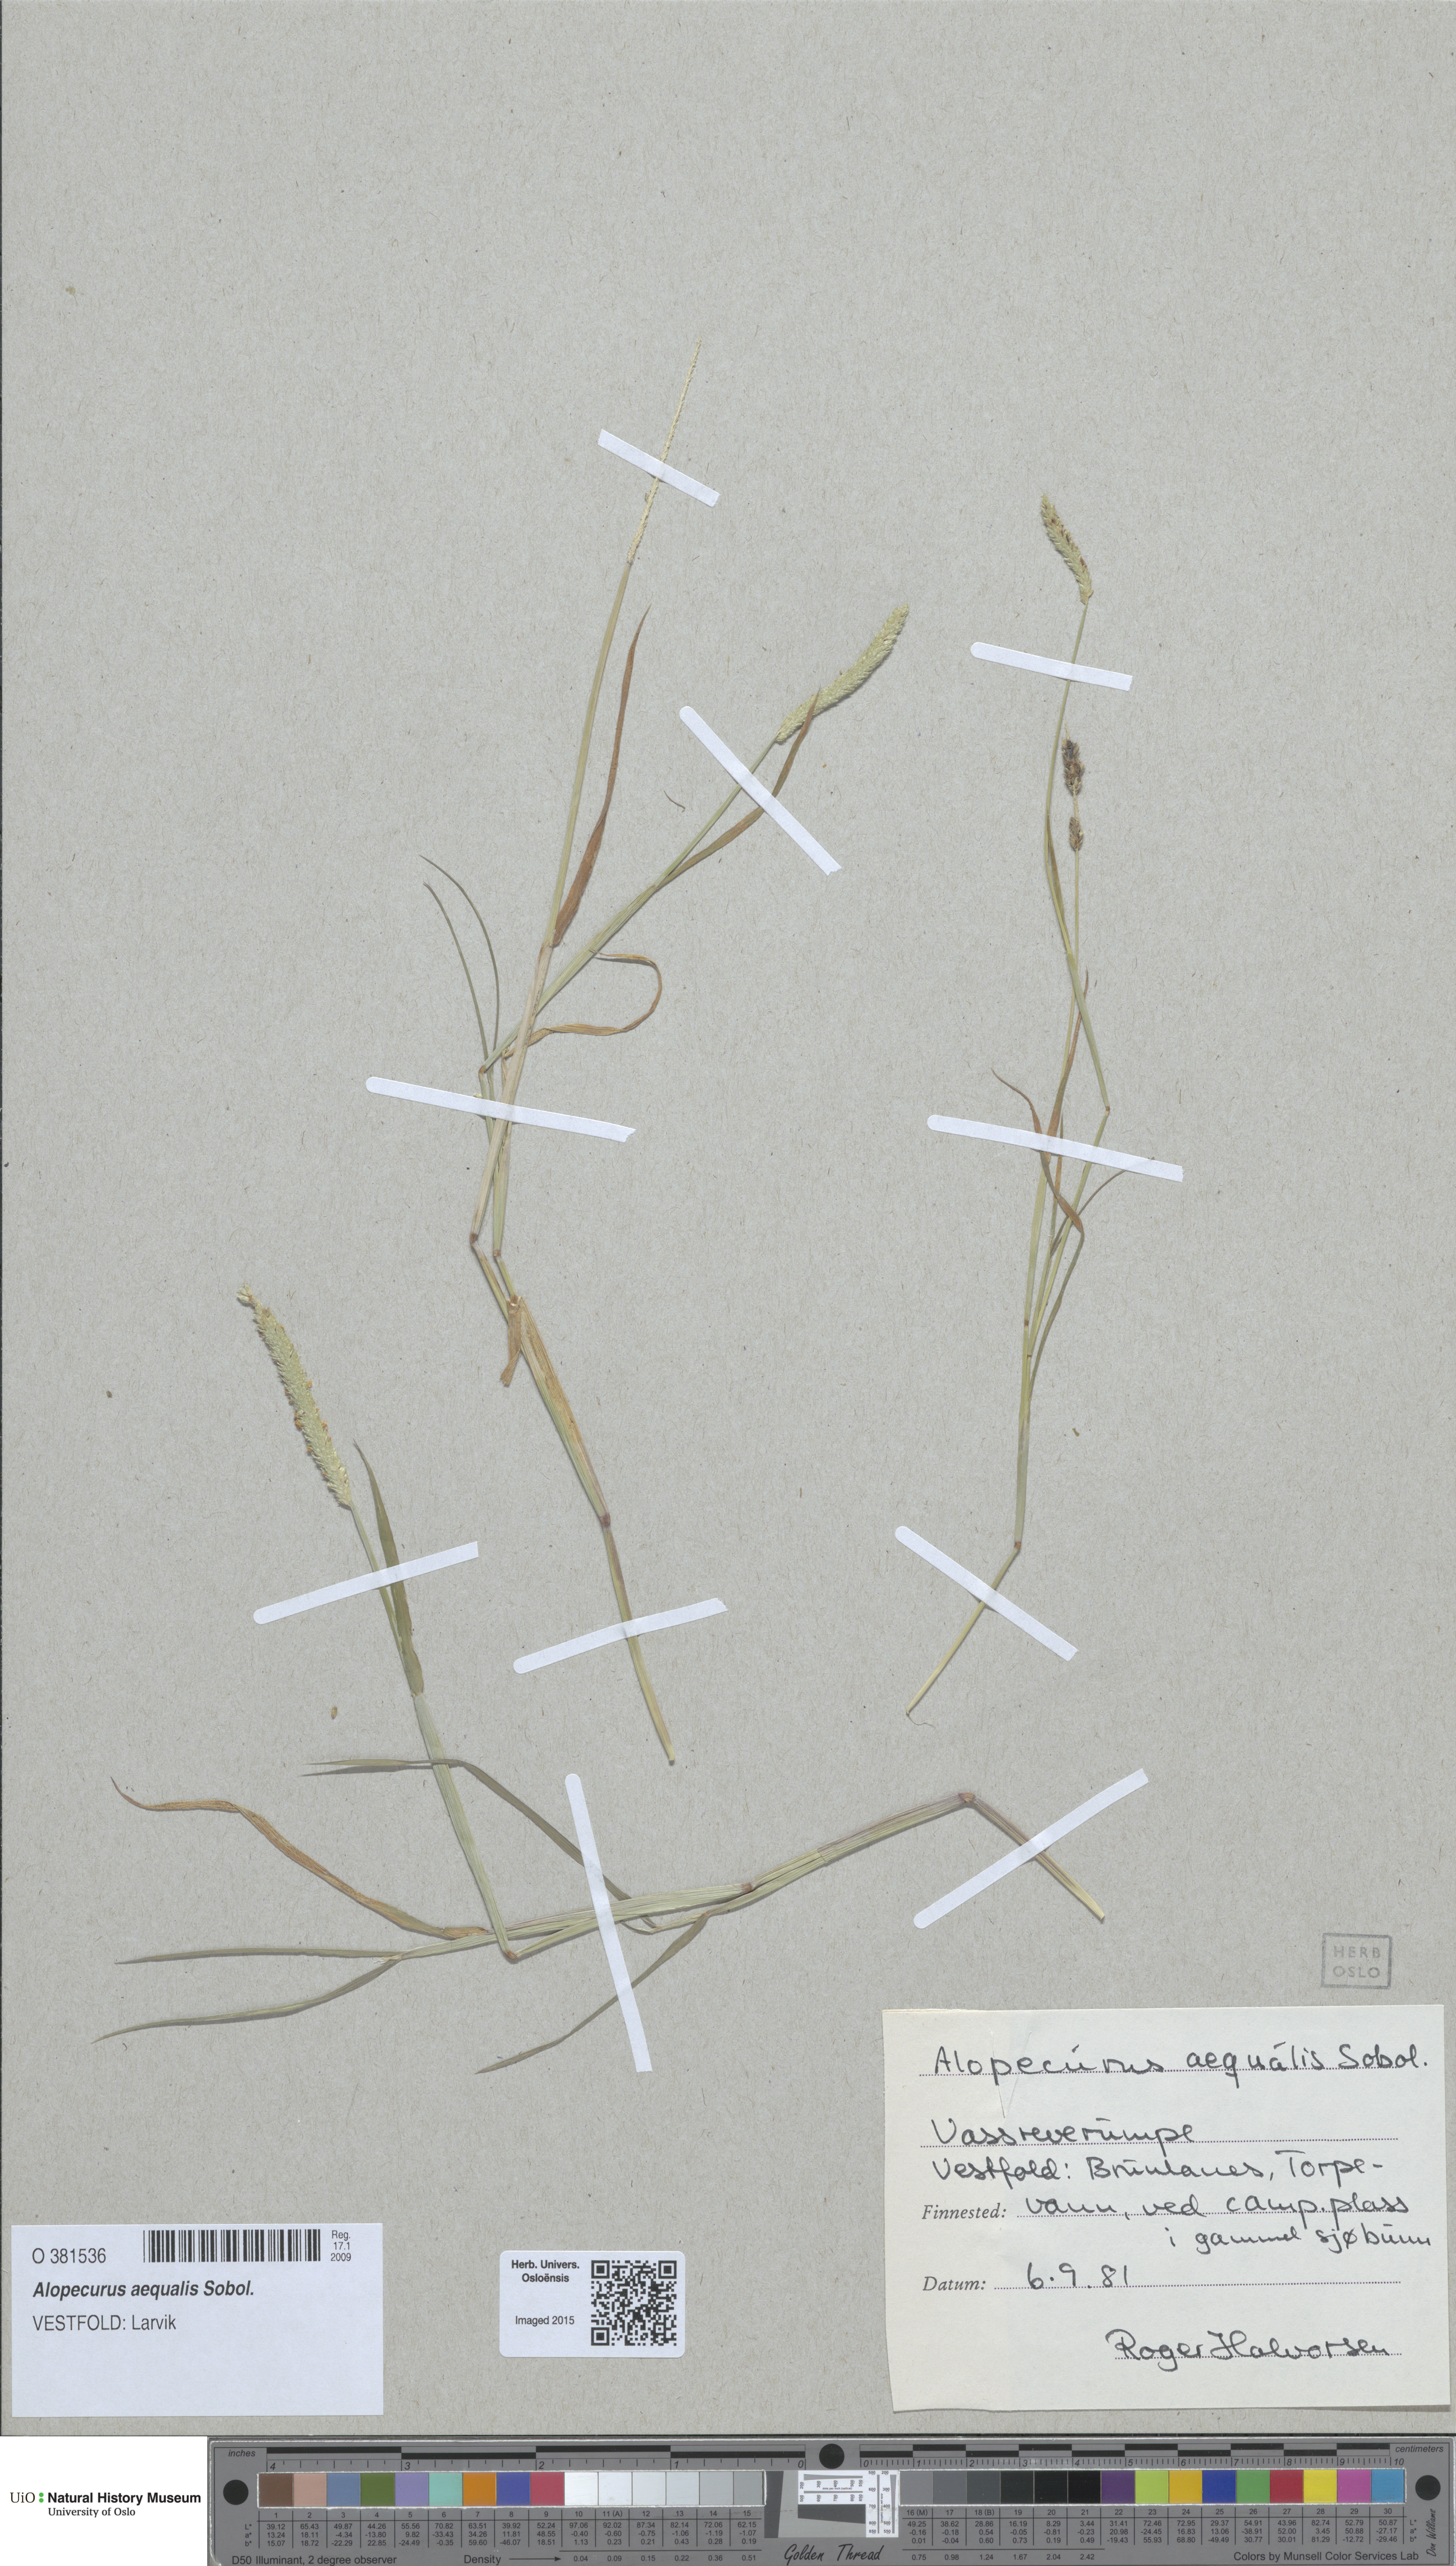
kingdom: Plantae
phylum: Tracheophyta
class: Liliopsida
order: Poales
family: Poaceae
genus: Alopecurus
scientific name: Alopecurus aequalis
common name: Orange foxtail
